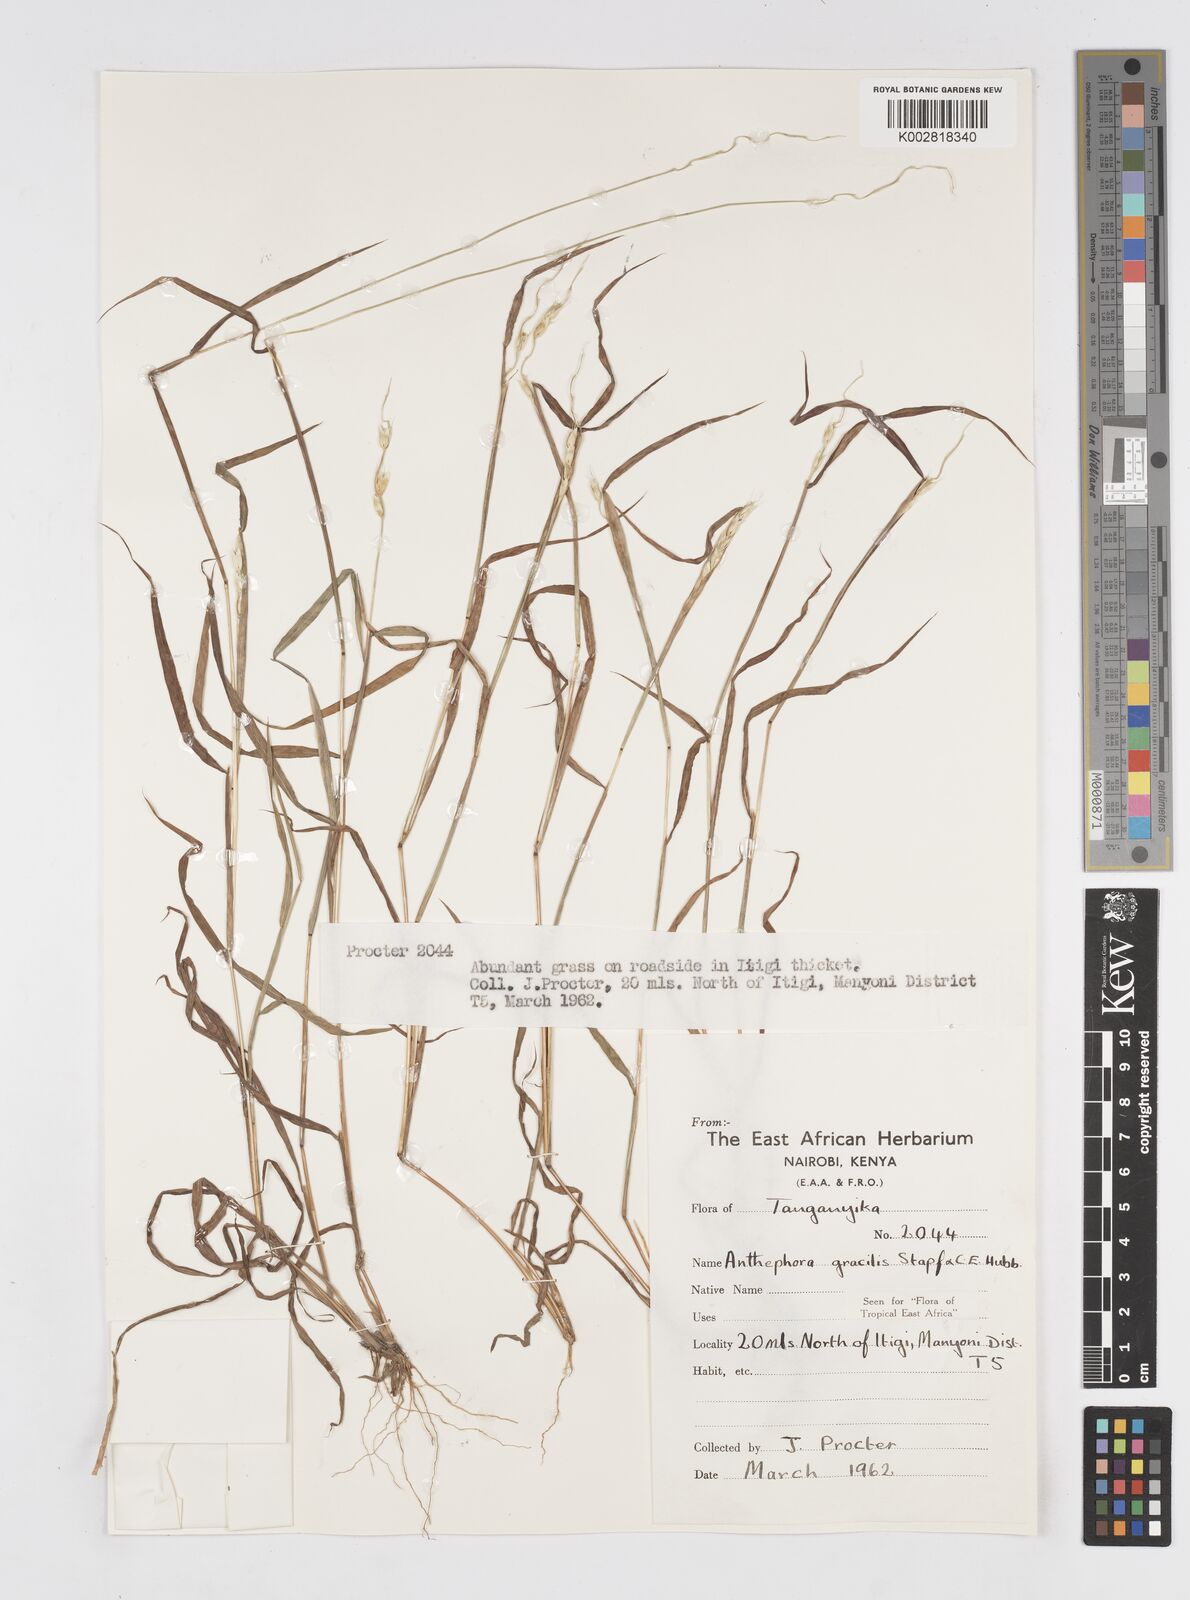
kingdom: Plantae
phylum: Tracheophyta
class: Liliopsida
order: Poales
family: Poaceae
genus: Anthephora
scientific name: Anthephora truncata
